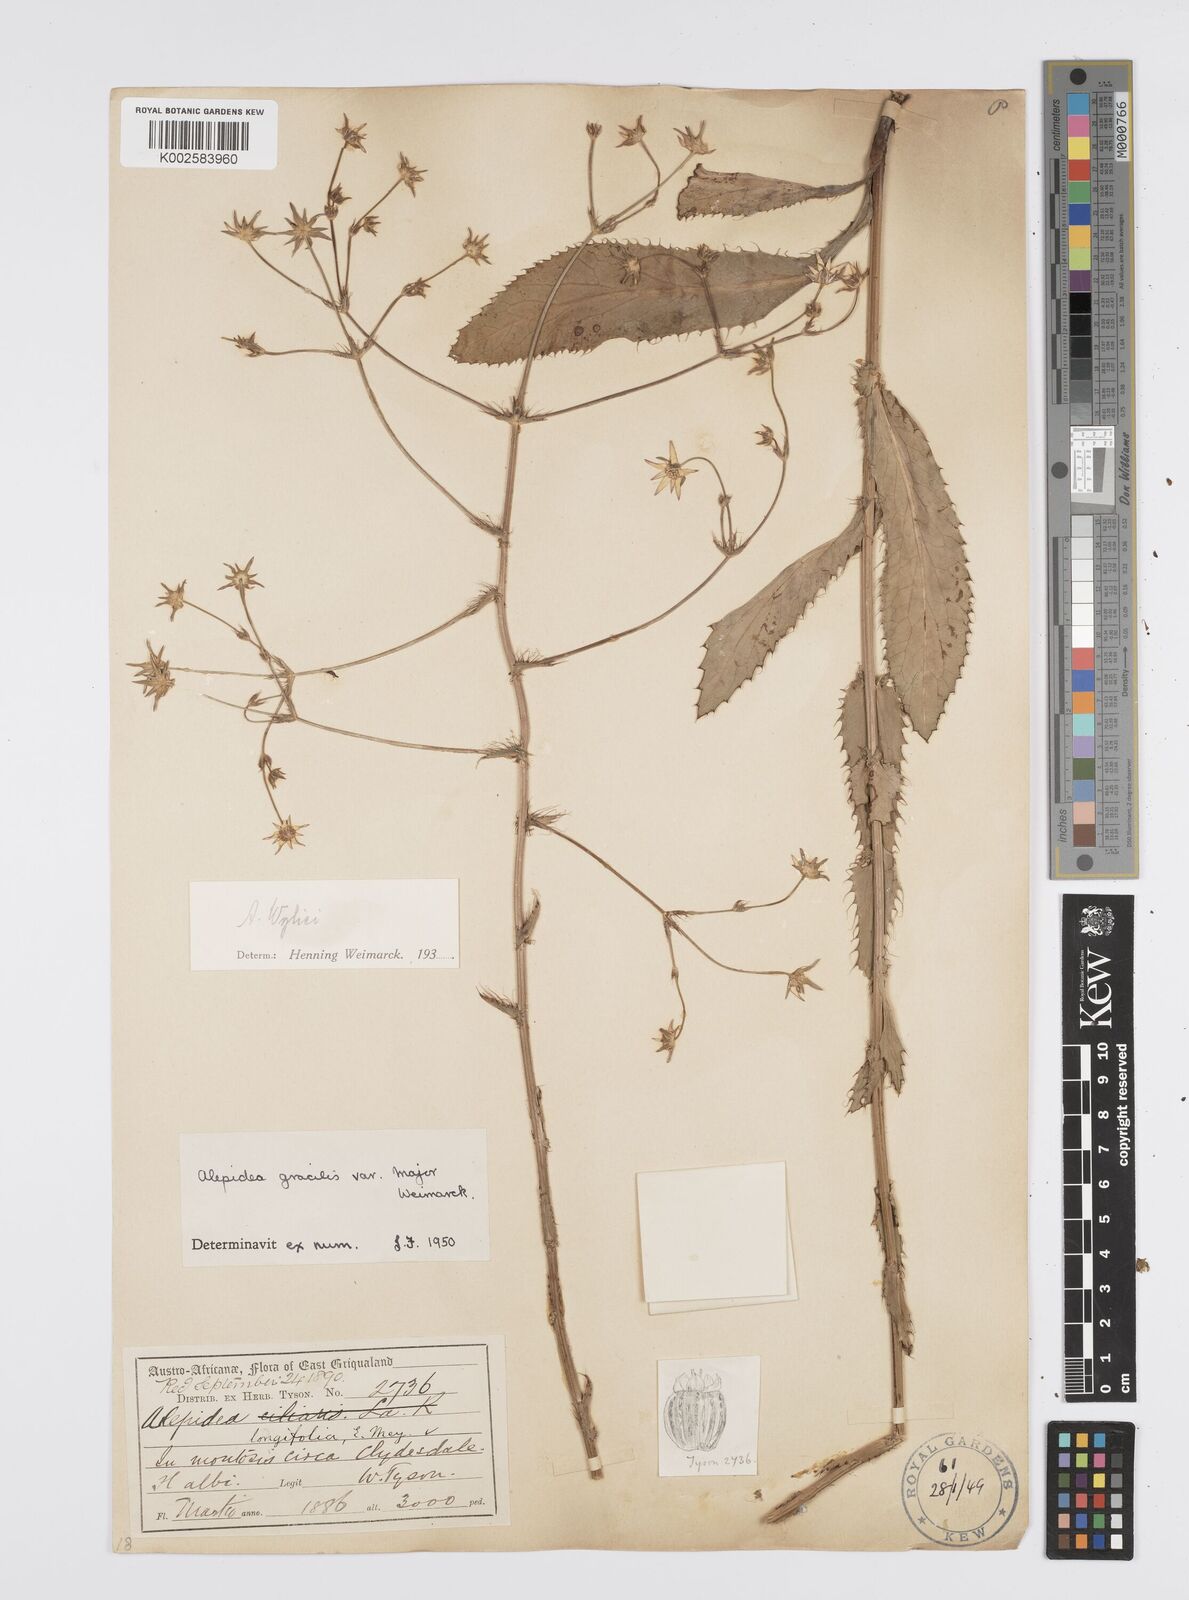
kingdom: Plantae
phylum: Tracheophyta
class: Magnoliopsida
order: Apiales
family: Apiaceae
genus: Alepidea
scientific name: Alepidea
